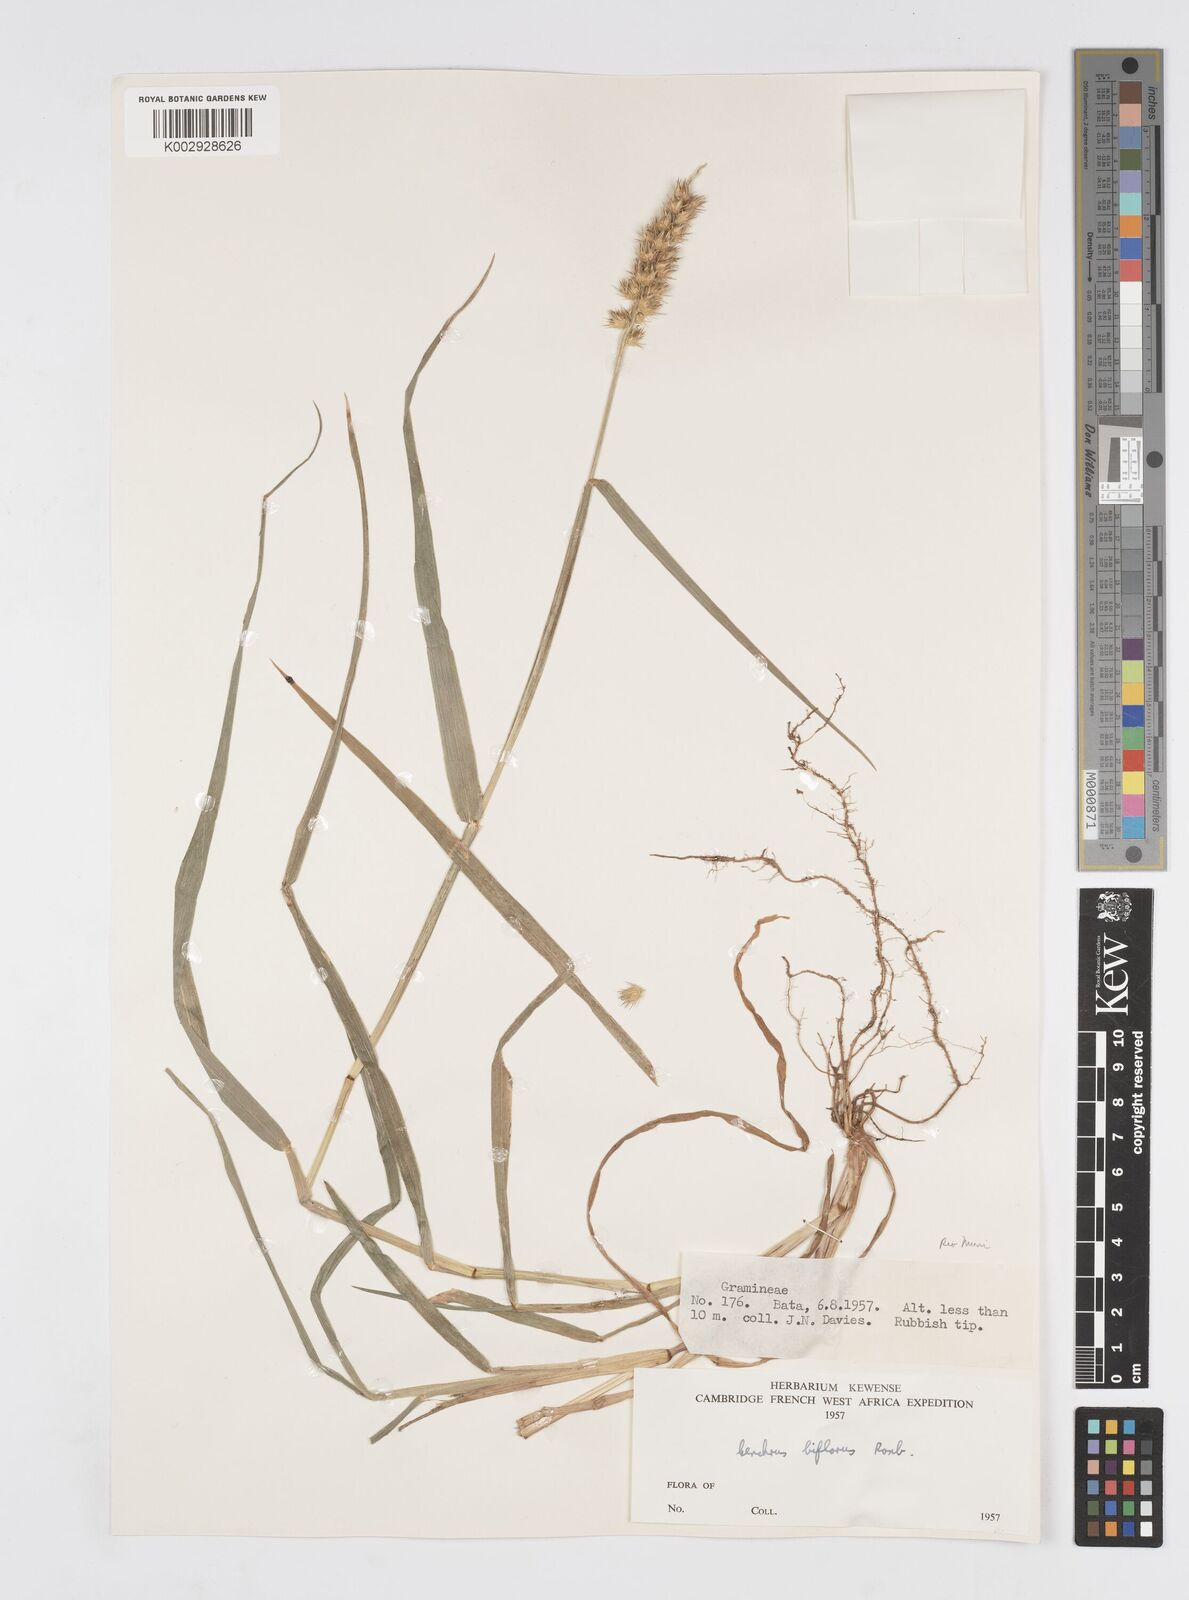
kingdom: Plantae
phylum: Tracheophyta
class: Liliopsida
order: Poales
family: Poaceae
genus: Cenchrus
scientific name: Cenchrus biflorus
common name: Indian sandbur
